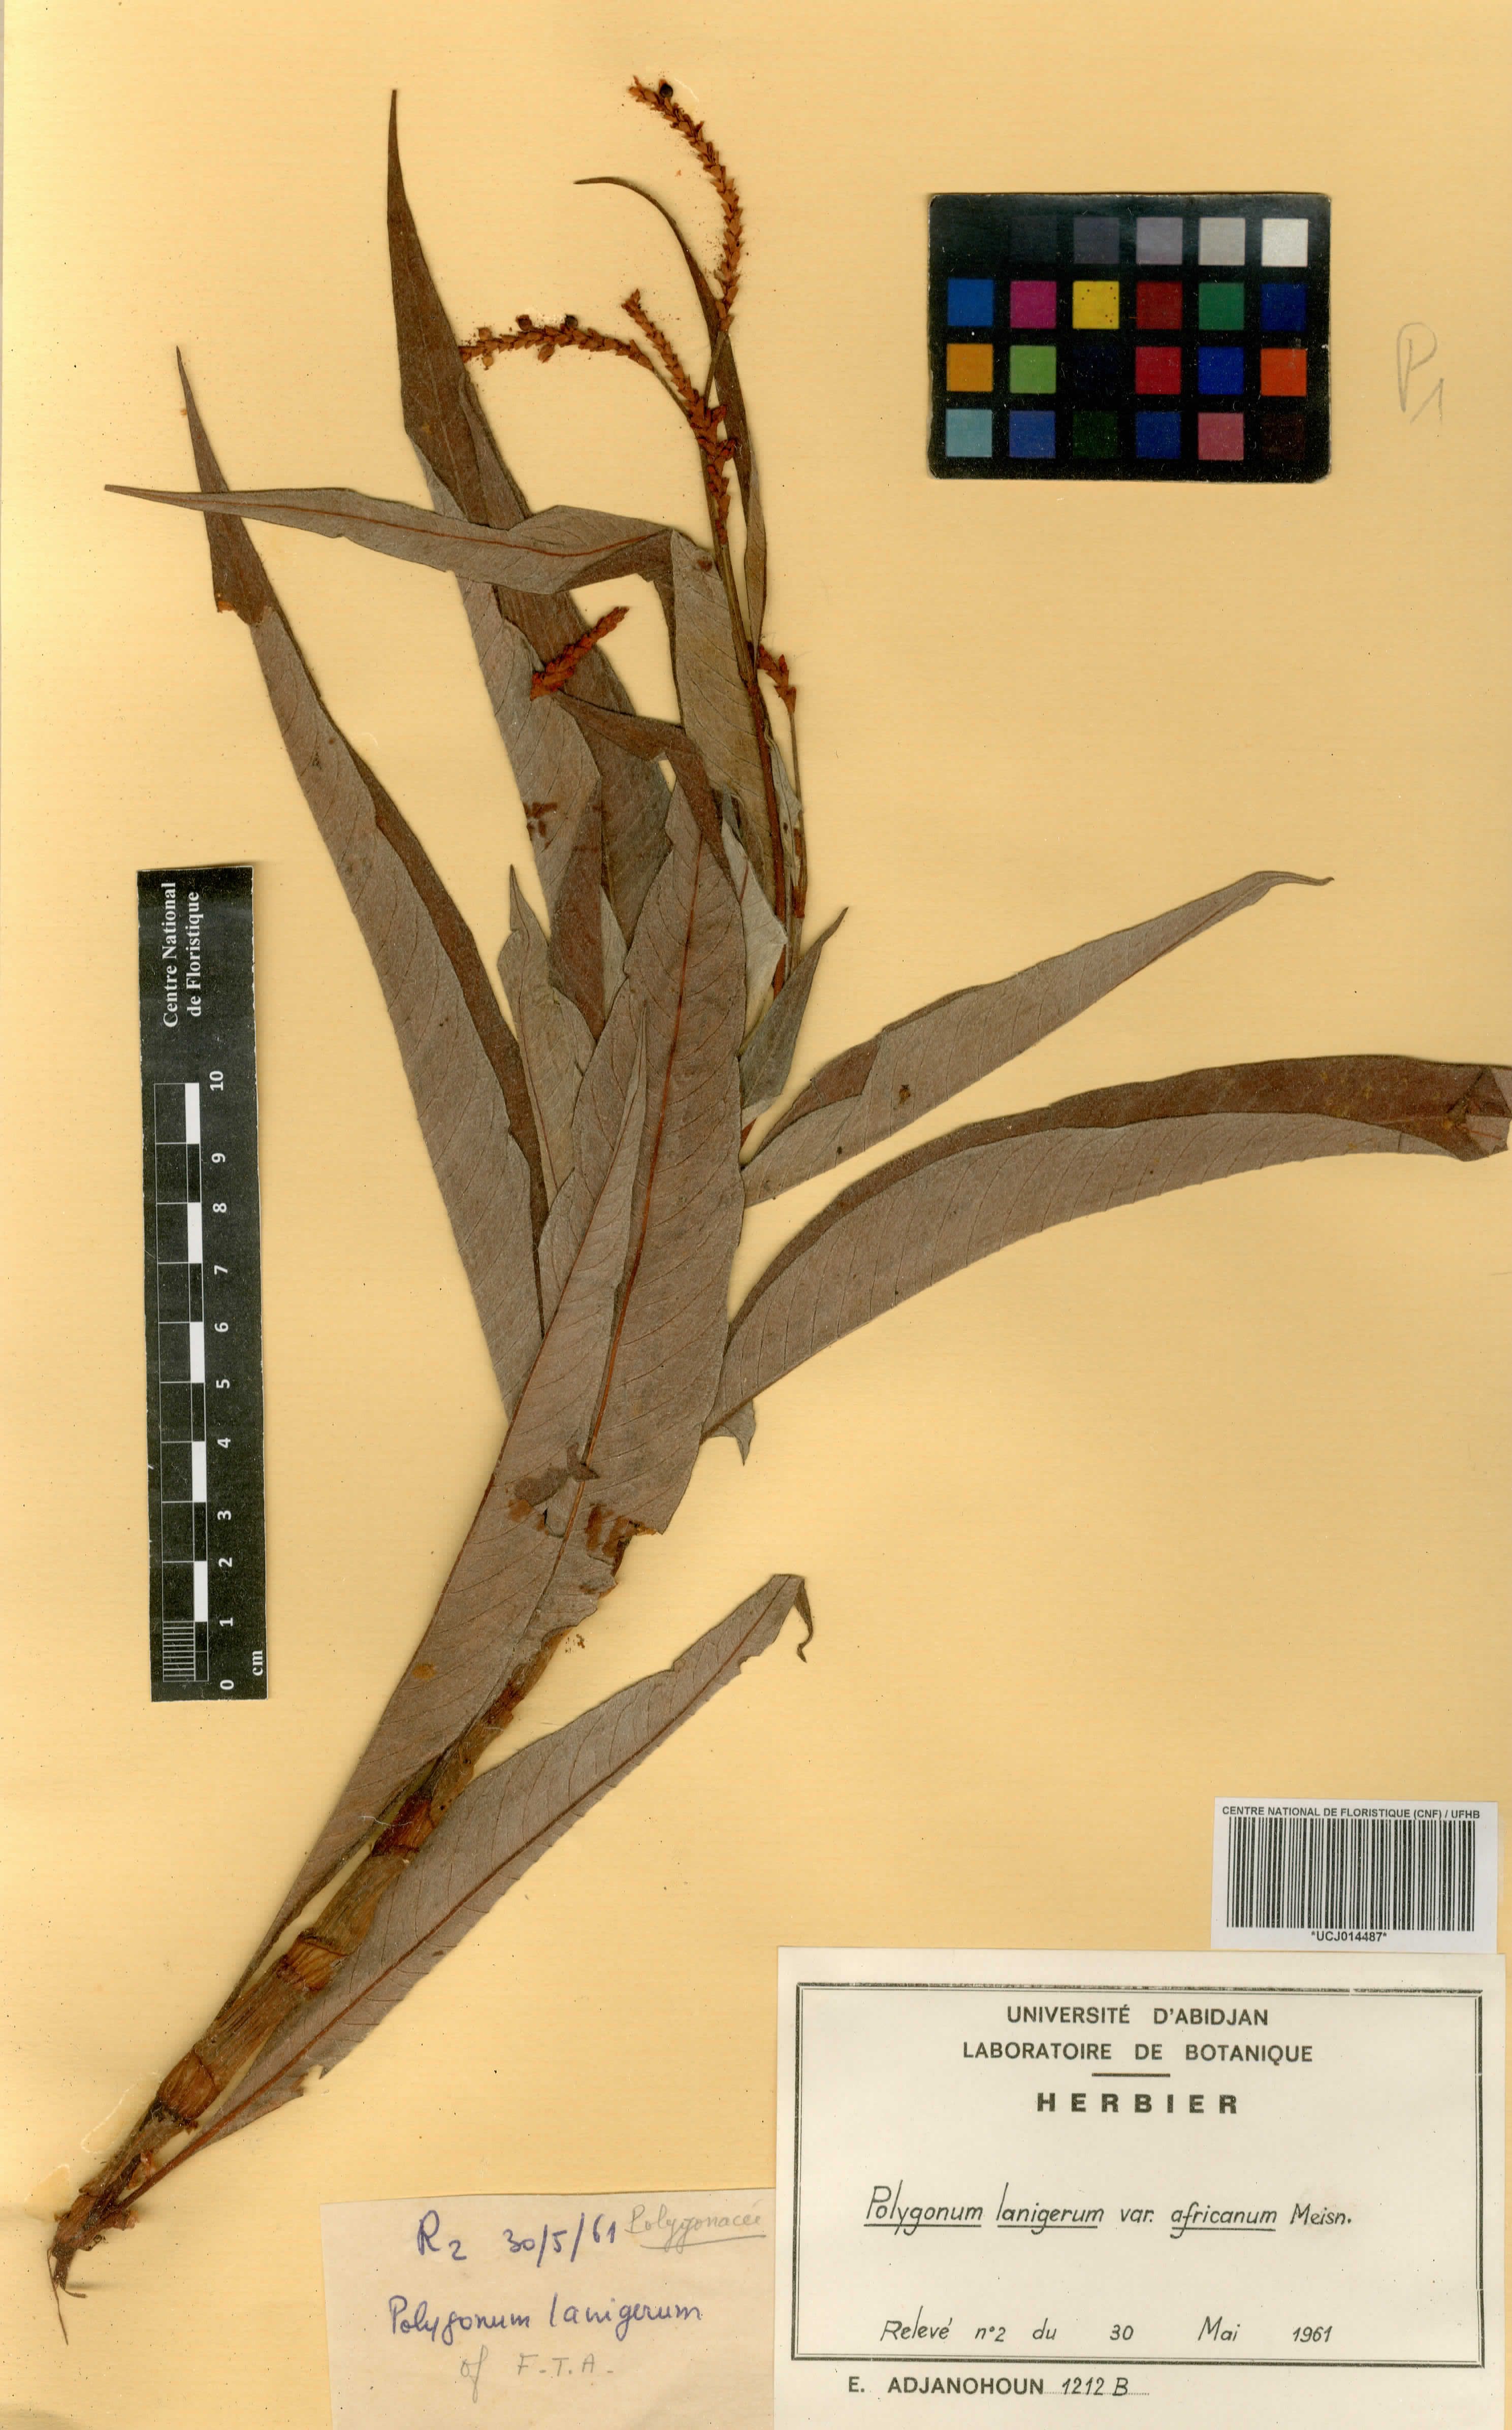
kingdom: Plantae
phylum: Tracheophyta
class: Magnoliopsida
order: Caryophyllales
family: Polygonaceae
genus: Persicaria
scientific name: Persicaria senegalensis
